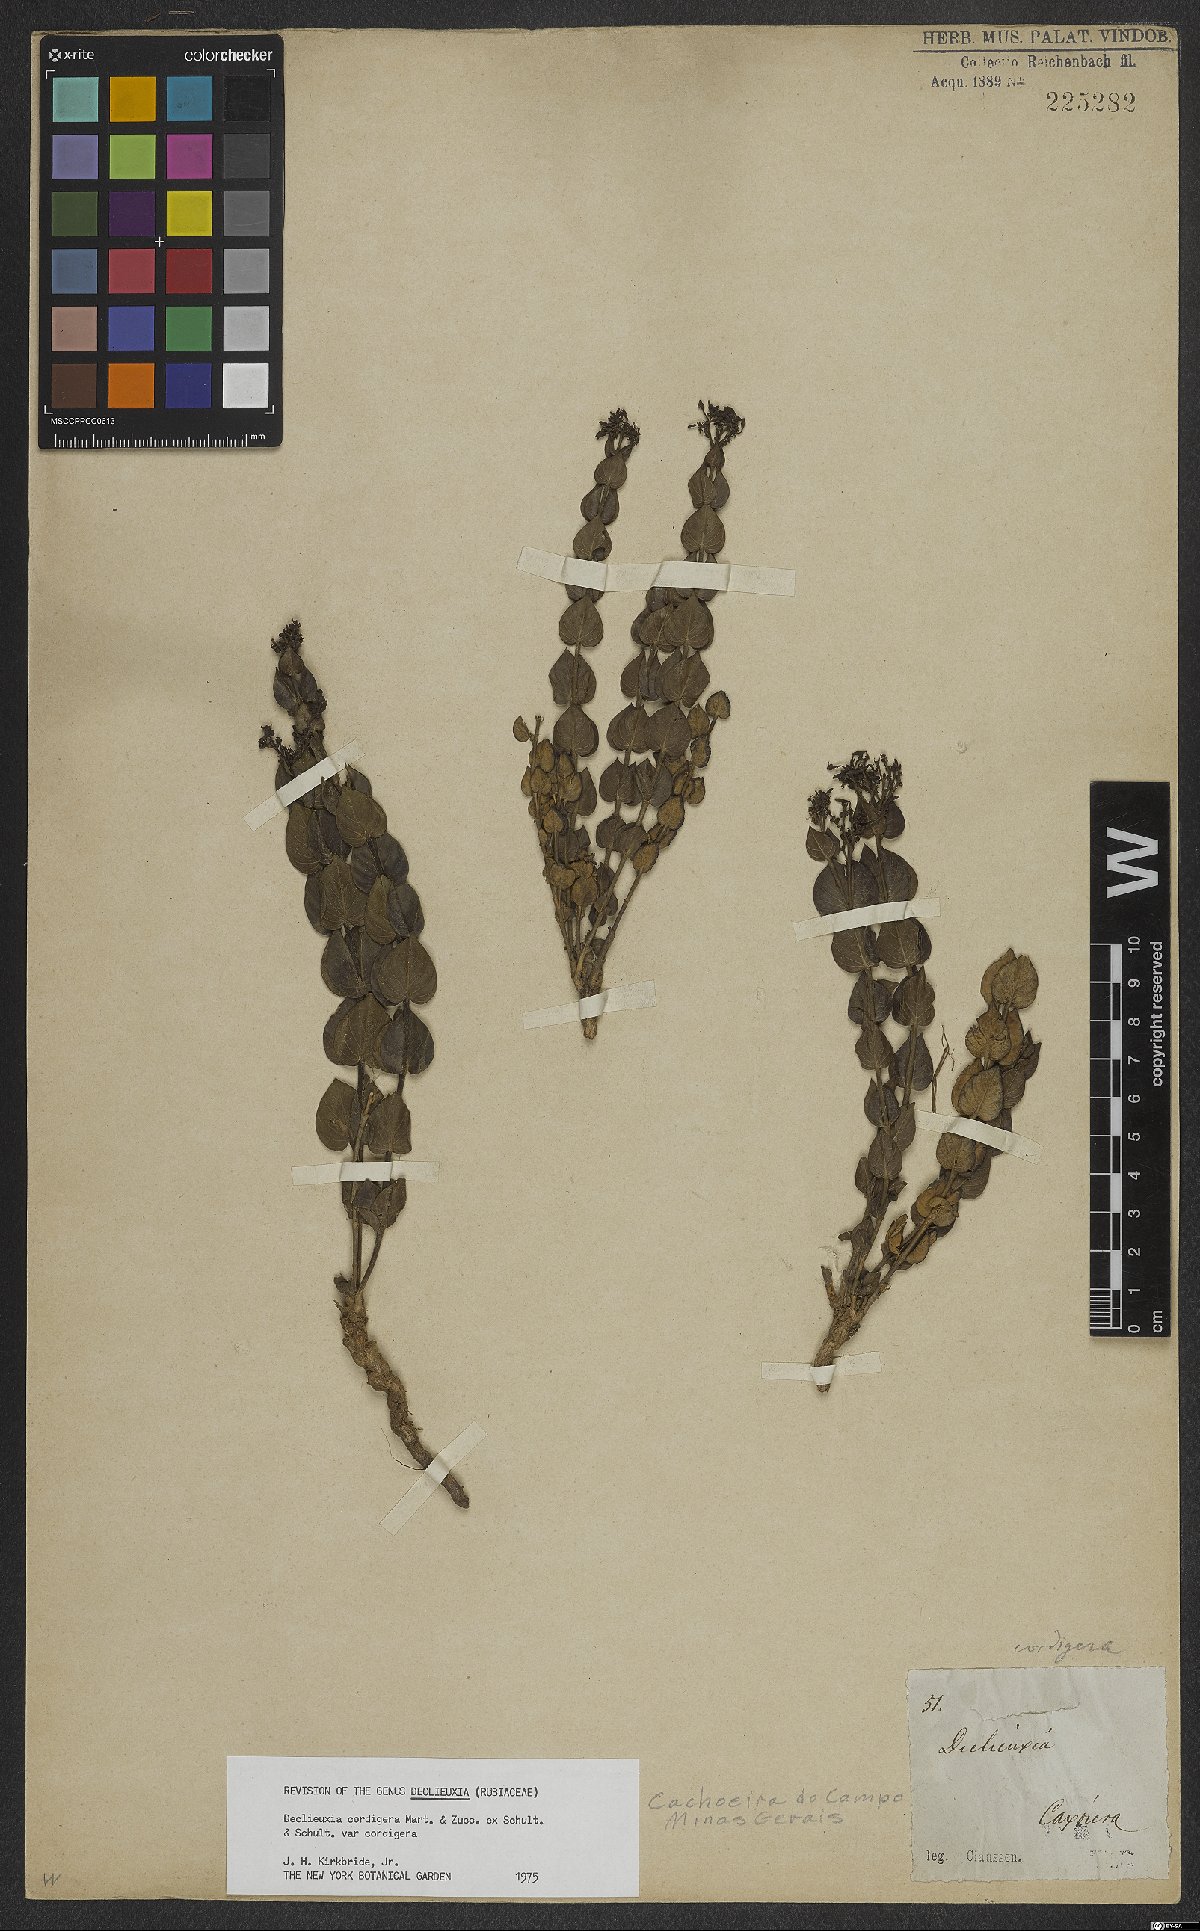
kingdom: Plantae
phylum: Tracheophyta
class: Magnoliopsida
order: Gentianales
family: Rubiaceae
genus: Declieuxia
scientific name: Declieuxia cordigera
